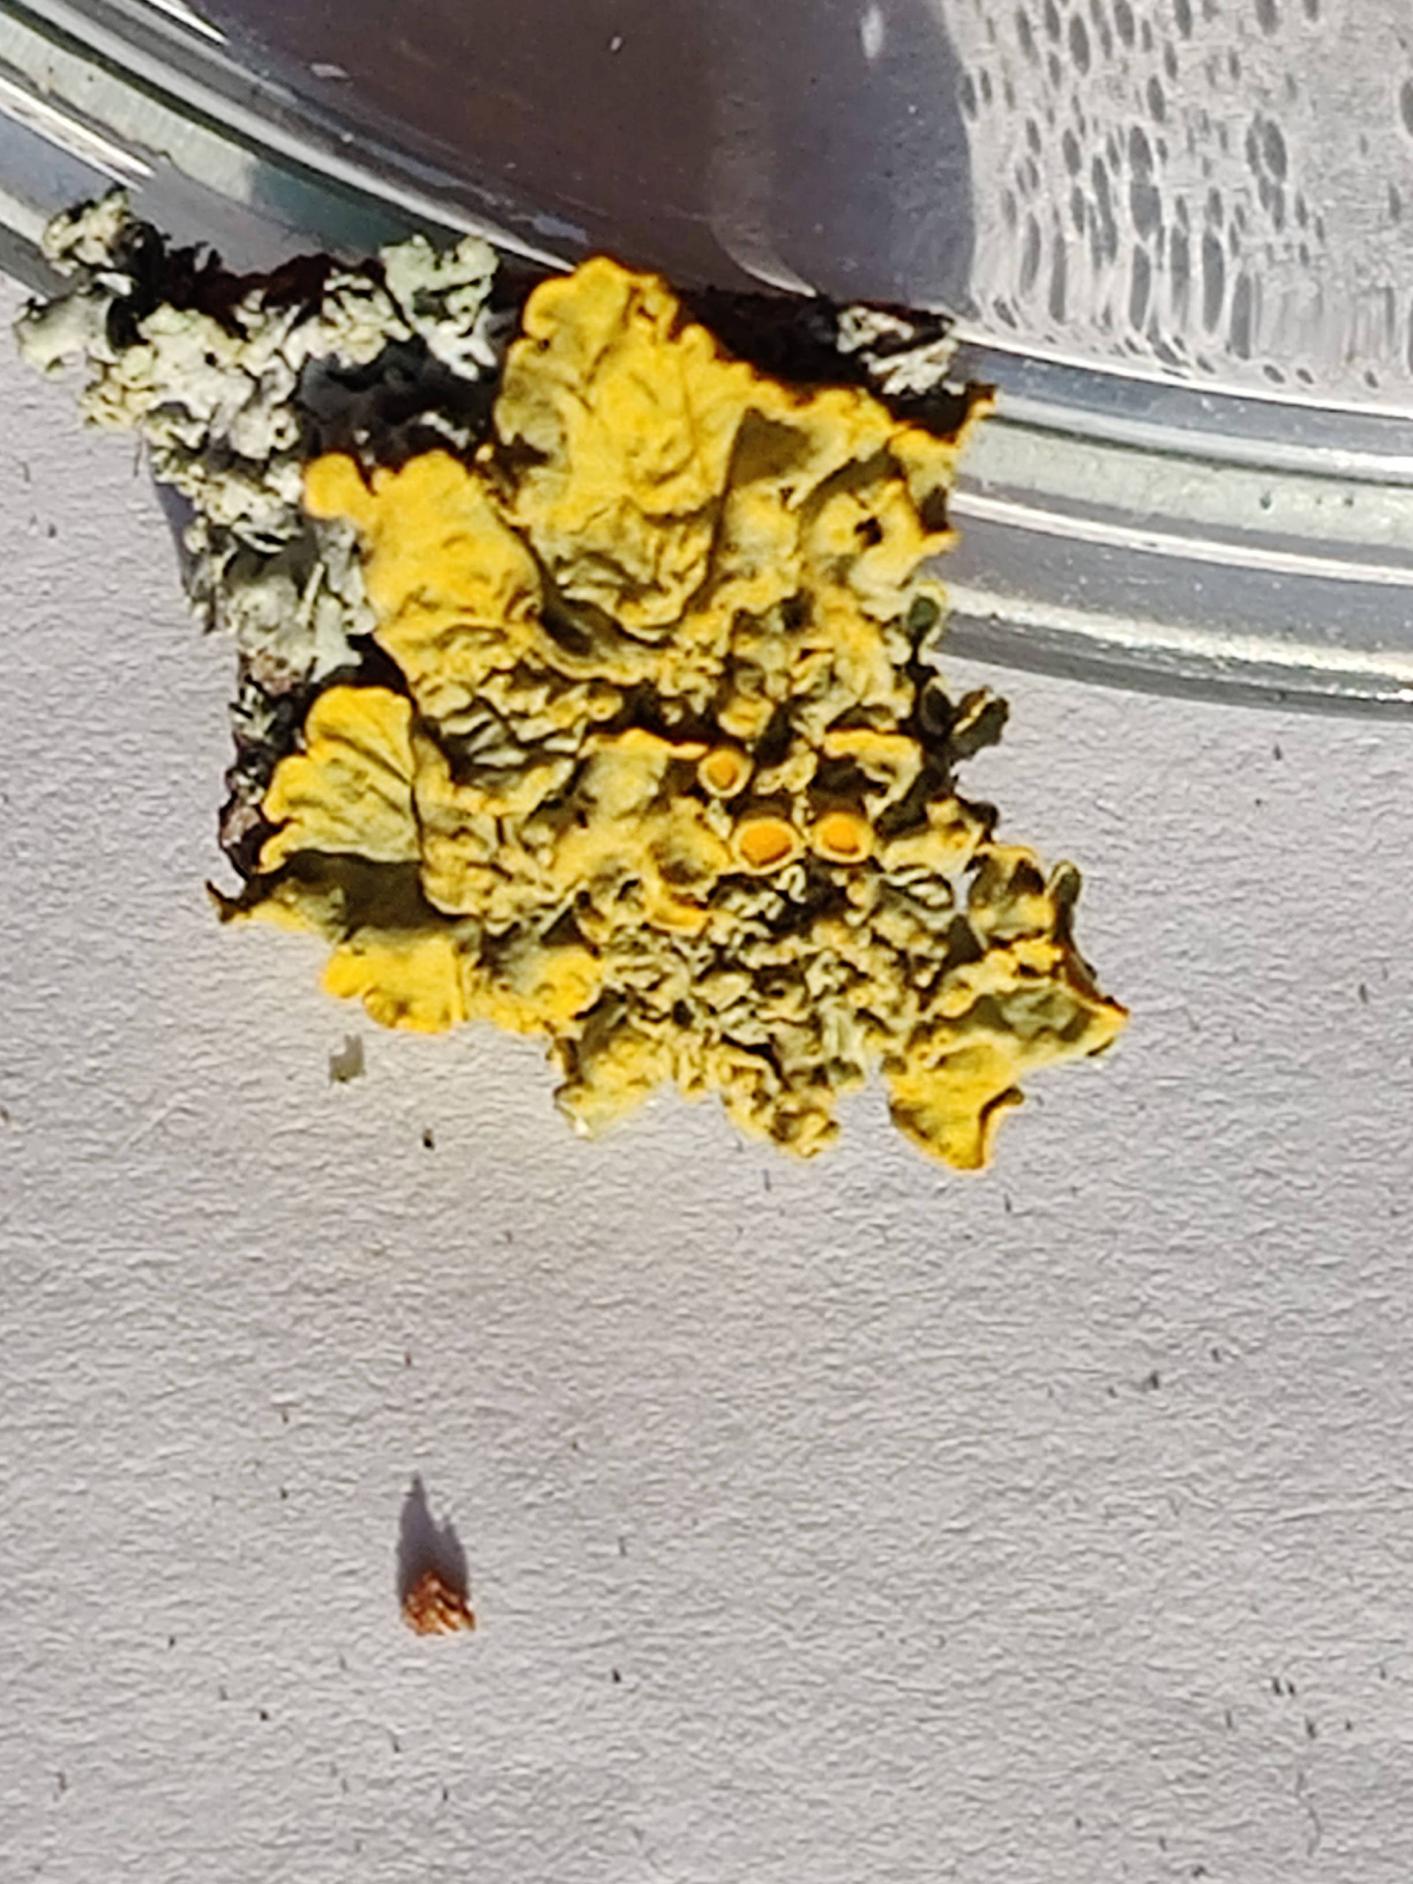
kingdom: Fungi
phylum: Ascomycota
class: Lecanoromycetes
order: Teloschistales
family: Teloschistaceae
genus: Xanthoria
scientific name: Xanthoria parietina
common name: Almindelig væggelav
